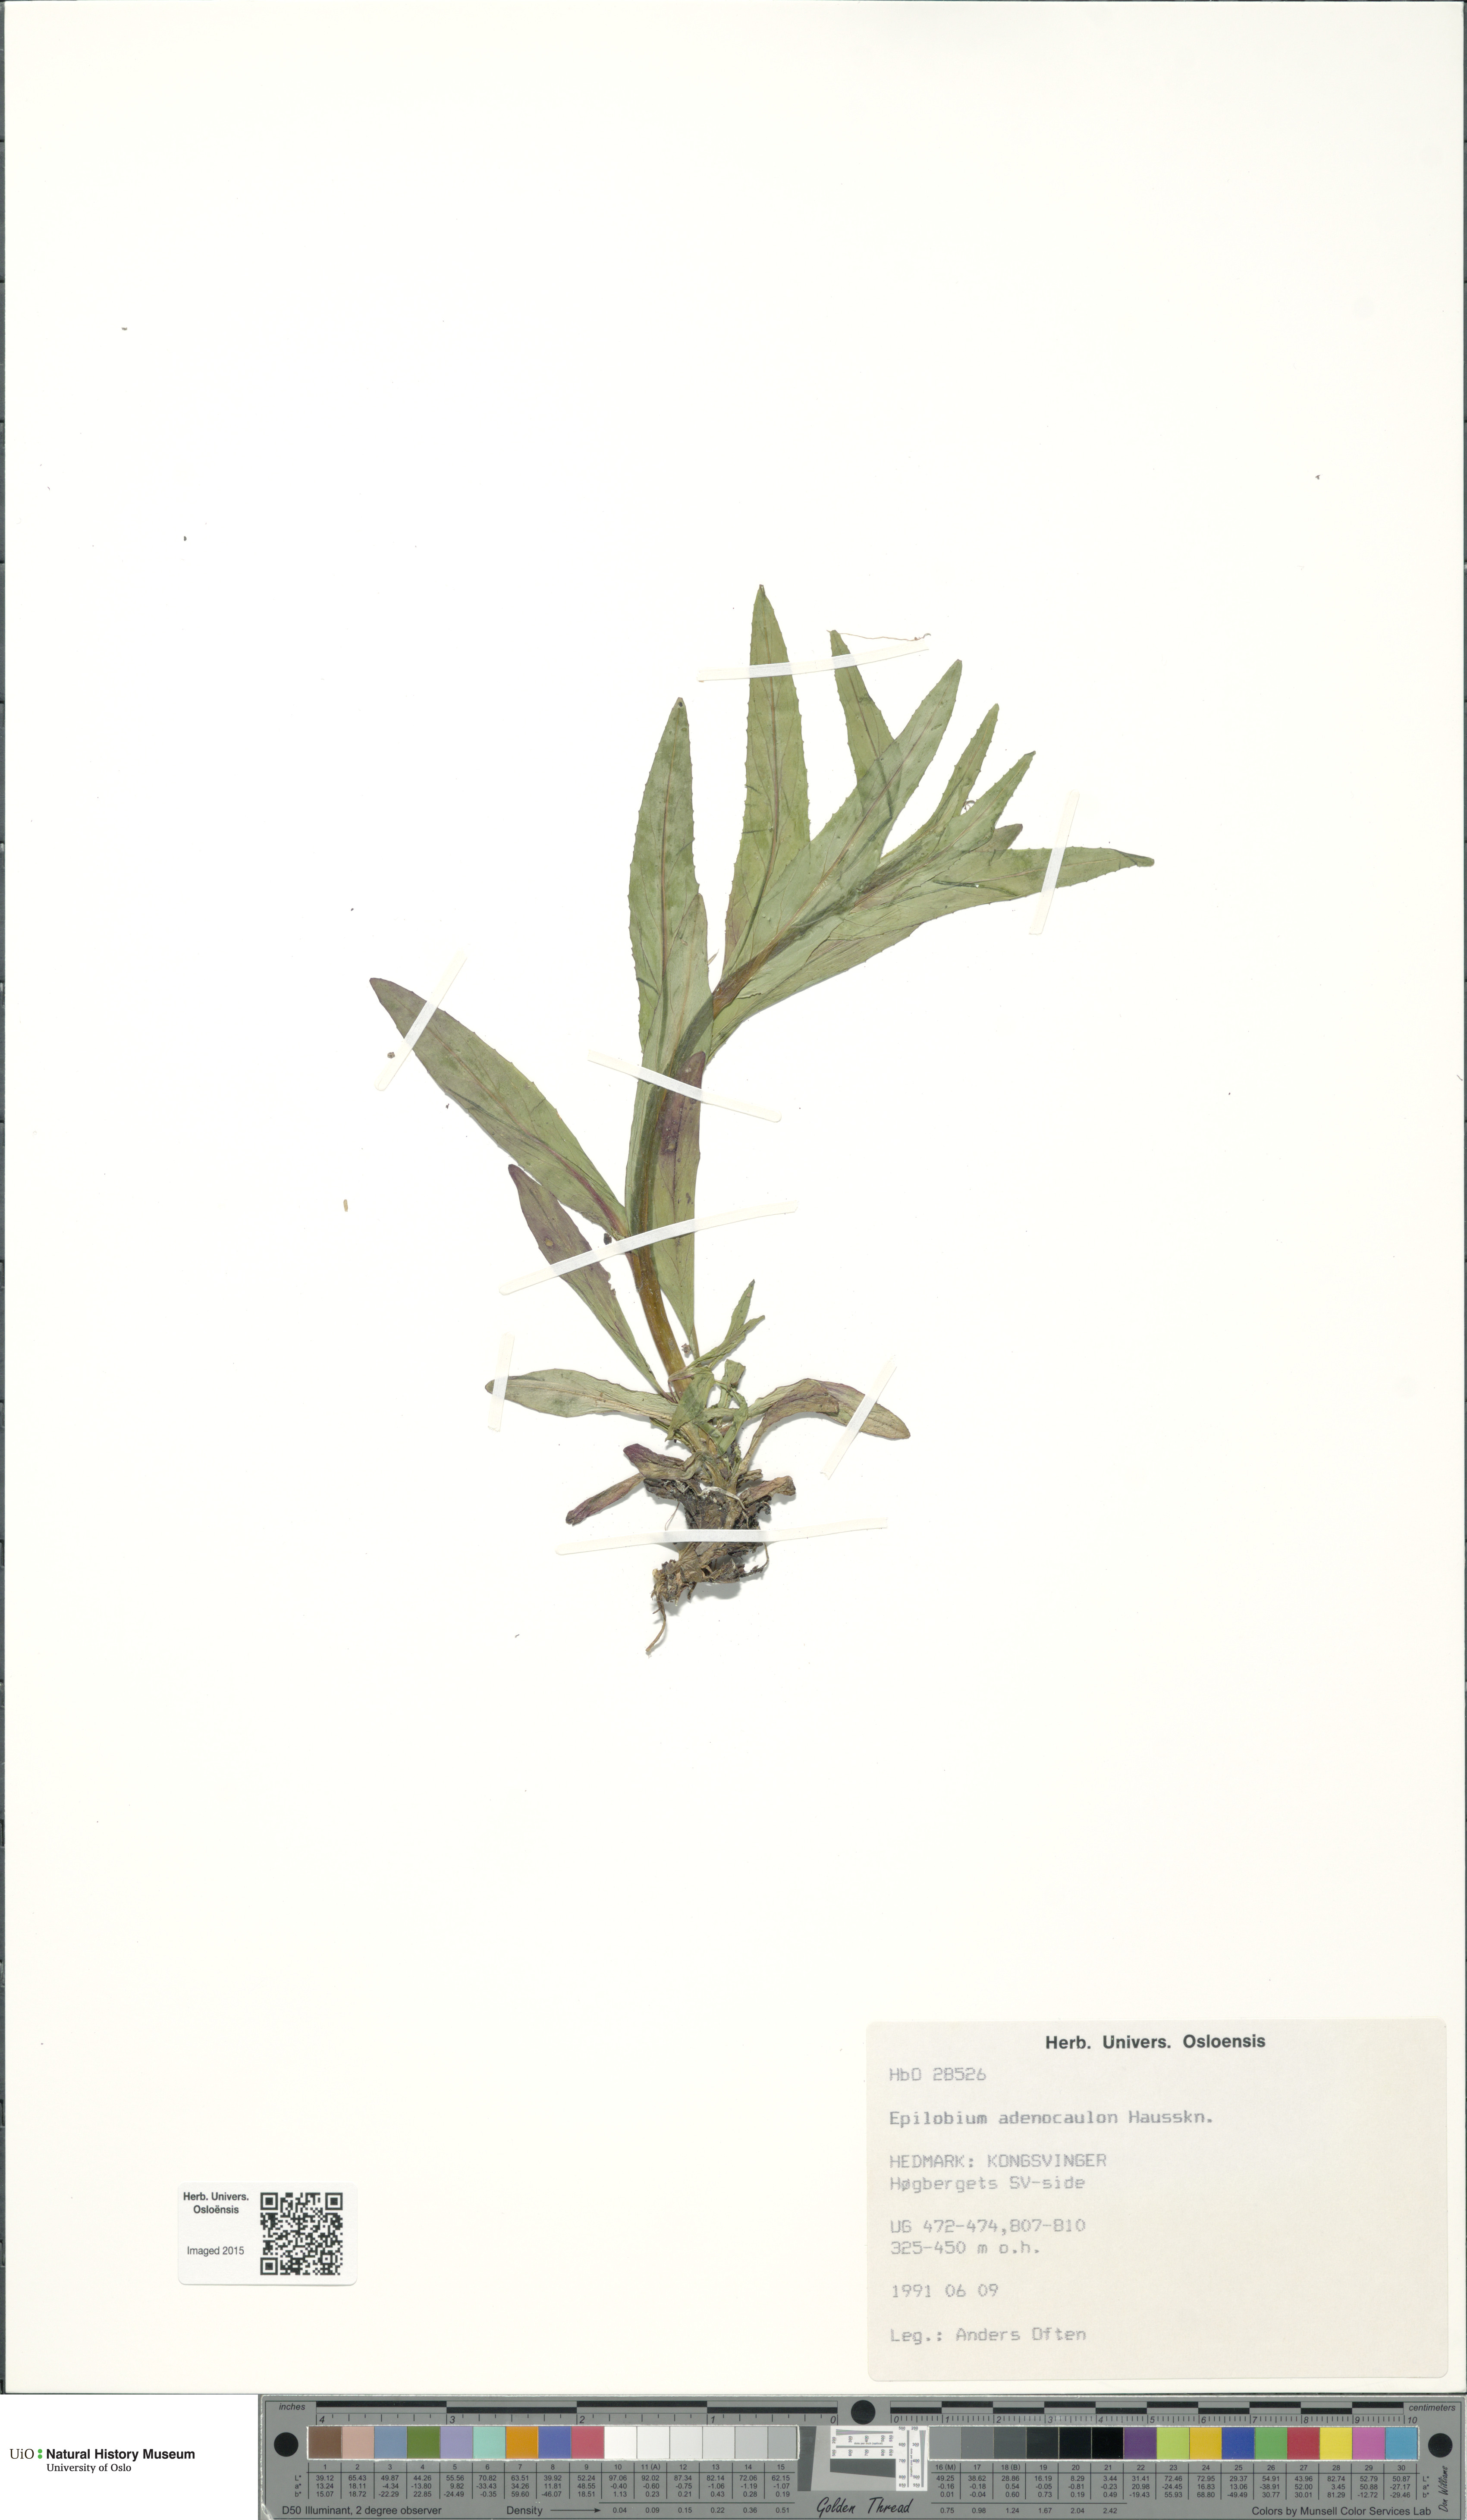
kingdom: Plantae
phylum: Tracheophyta
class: Magnoliopsida
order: Myrtales
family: Onagraceae
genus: Epilobium
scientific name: Epilobium ciliatum
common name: American willowherb
